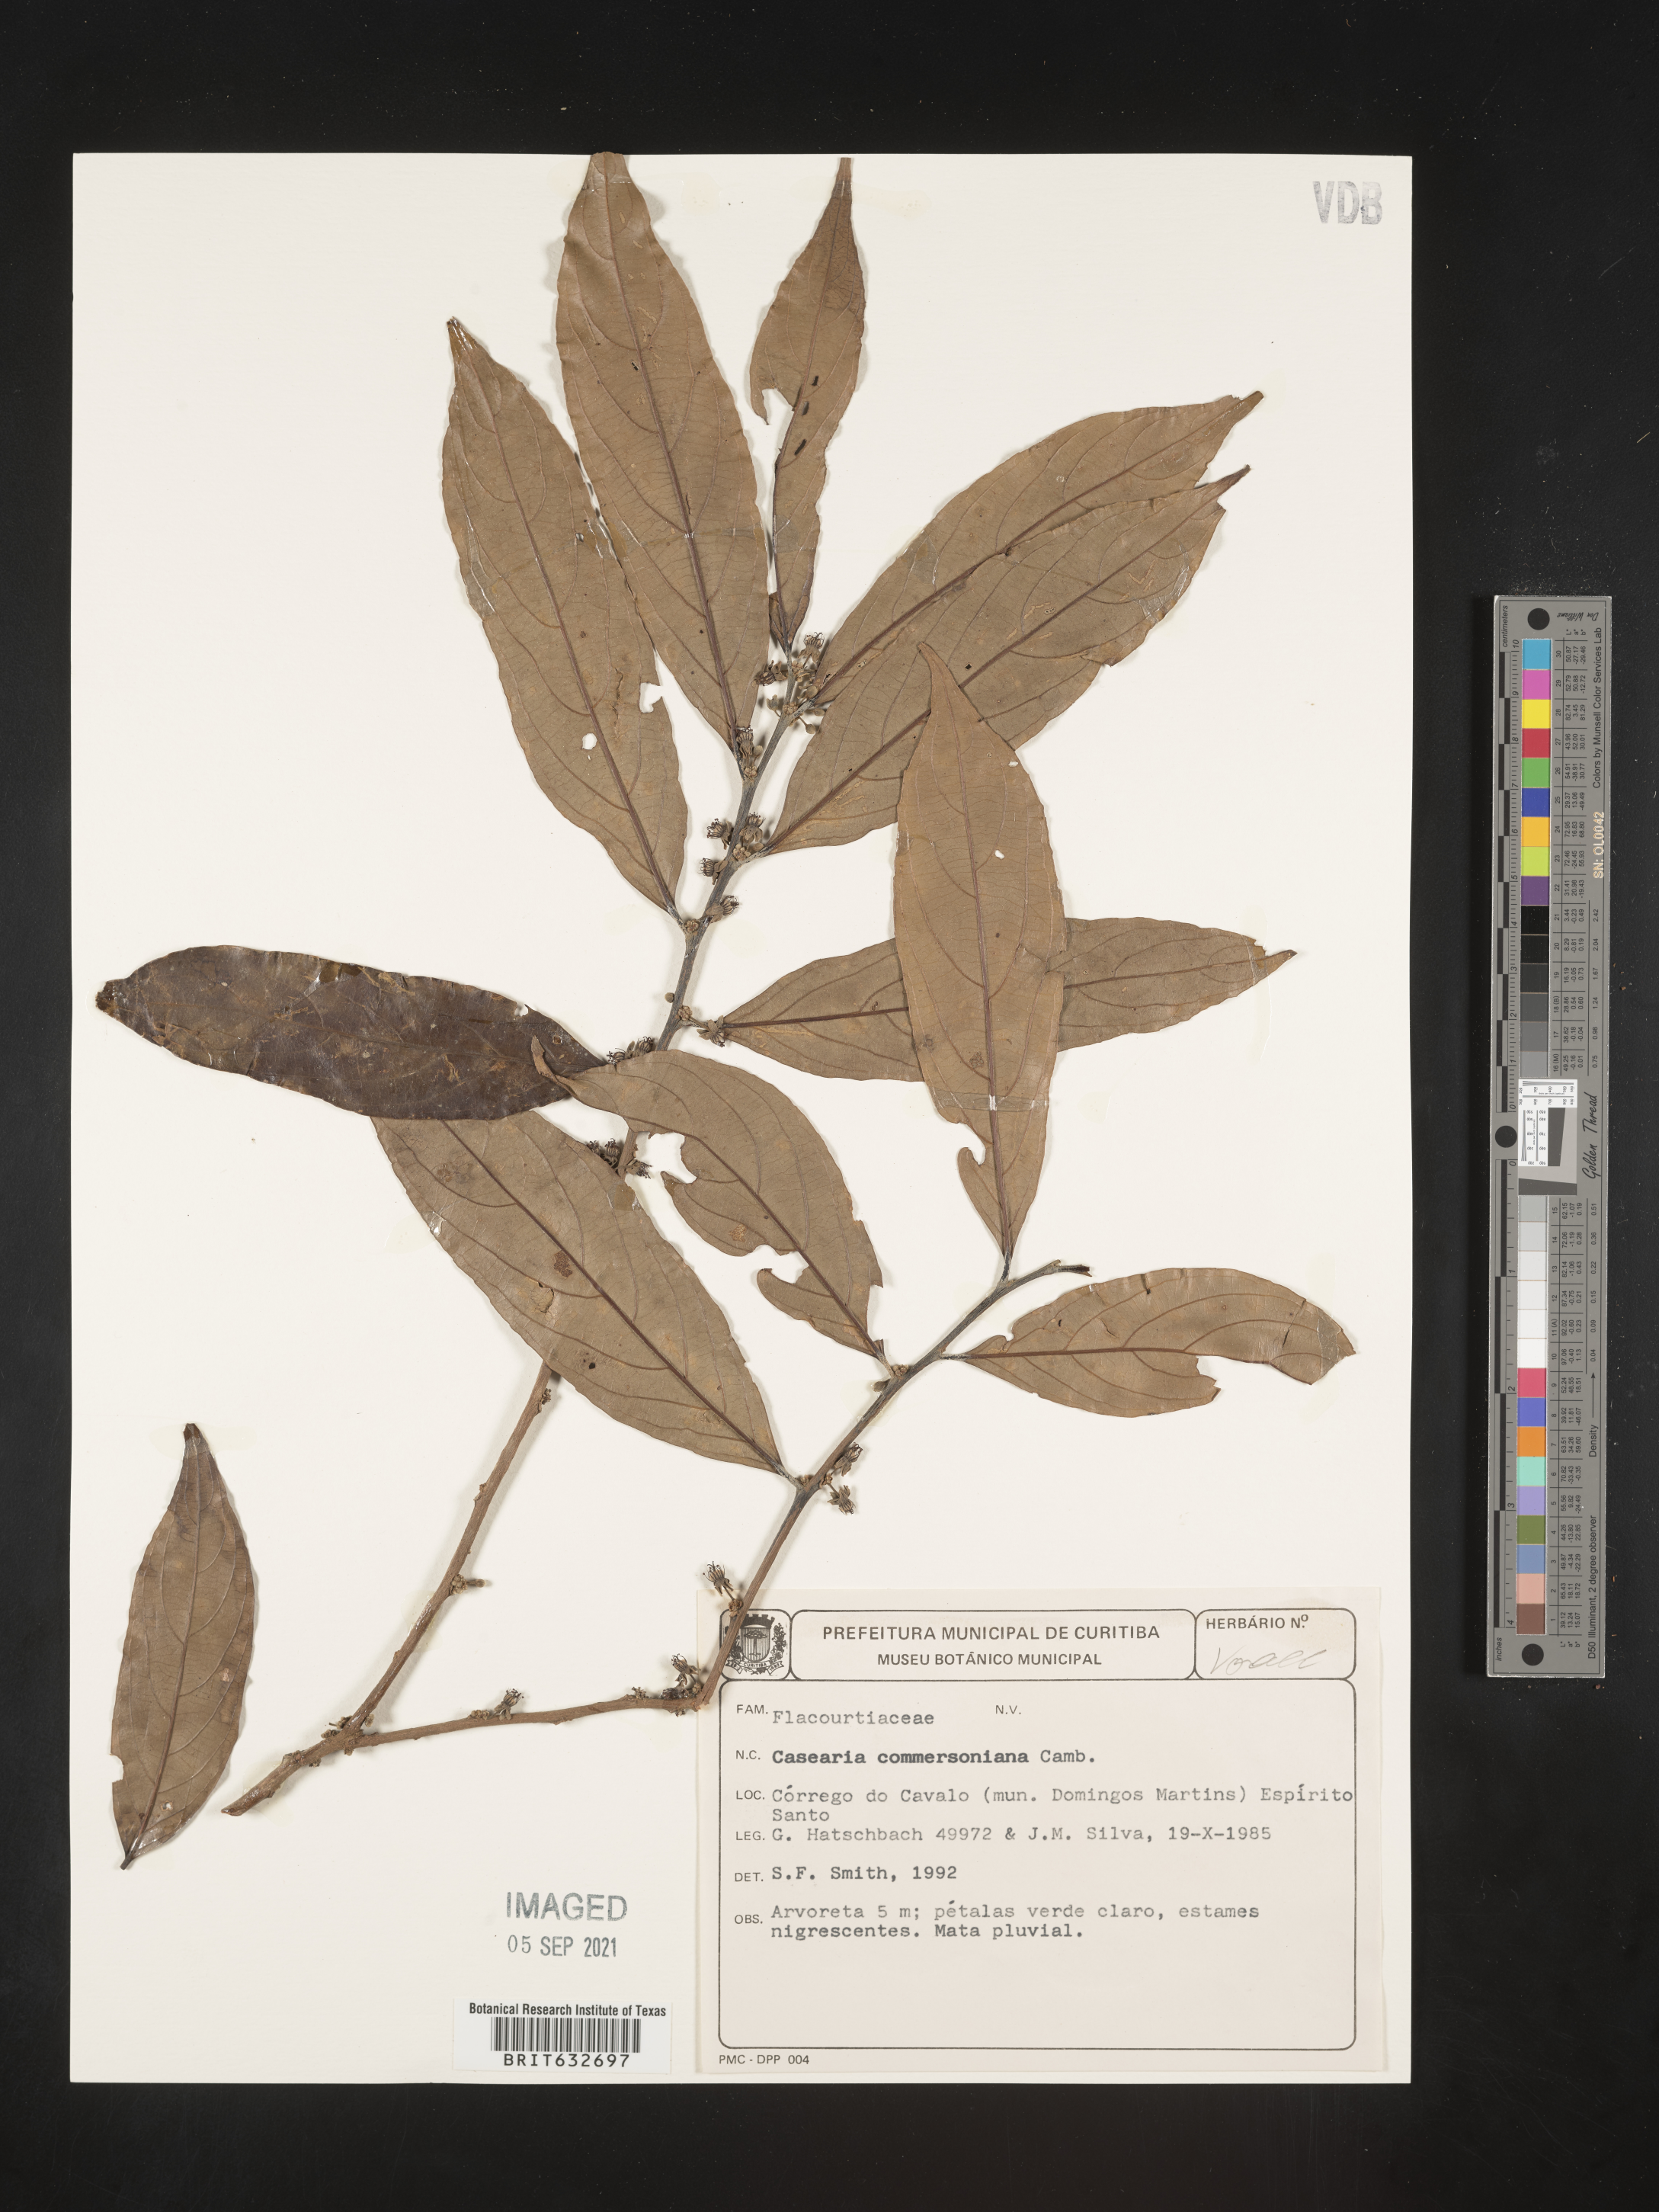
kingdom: Plantae
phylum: Tracheophyta
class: Magnoliopsida
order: Malpighiales
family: Salicaceae
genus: Casearia
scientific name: Casearia
